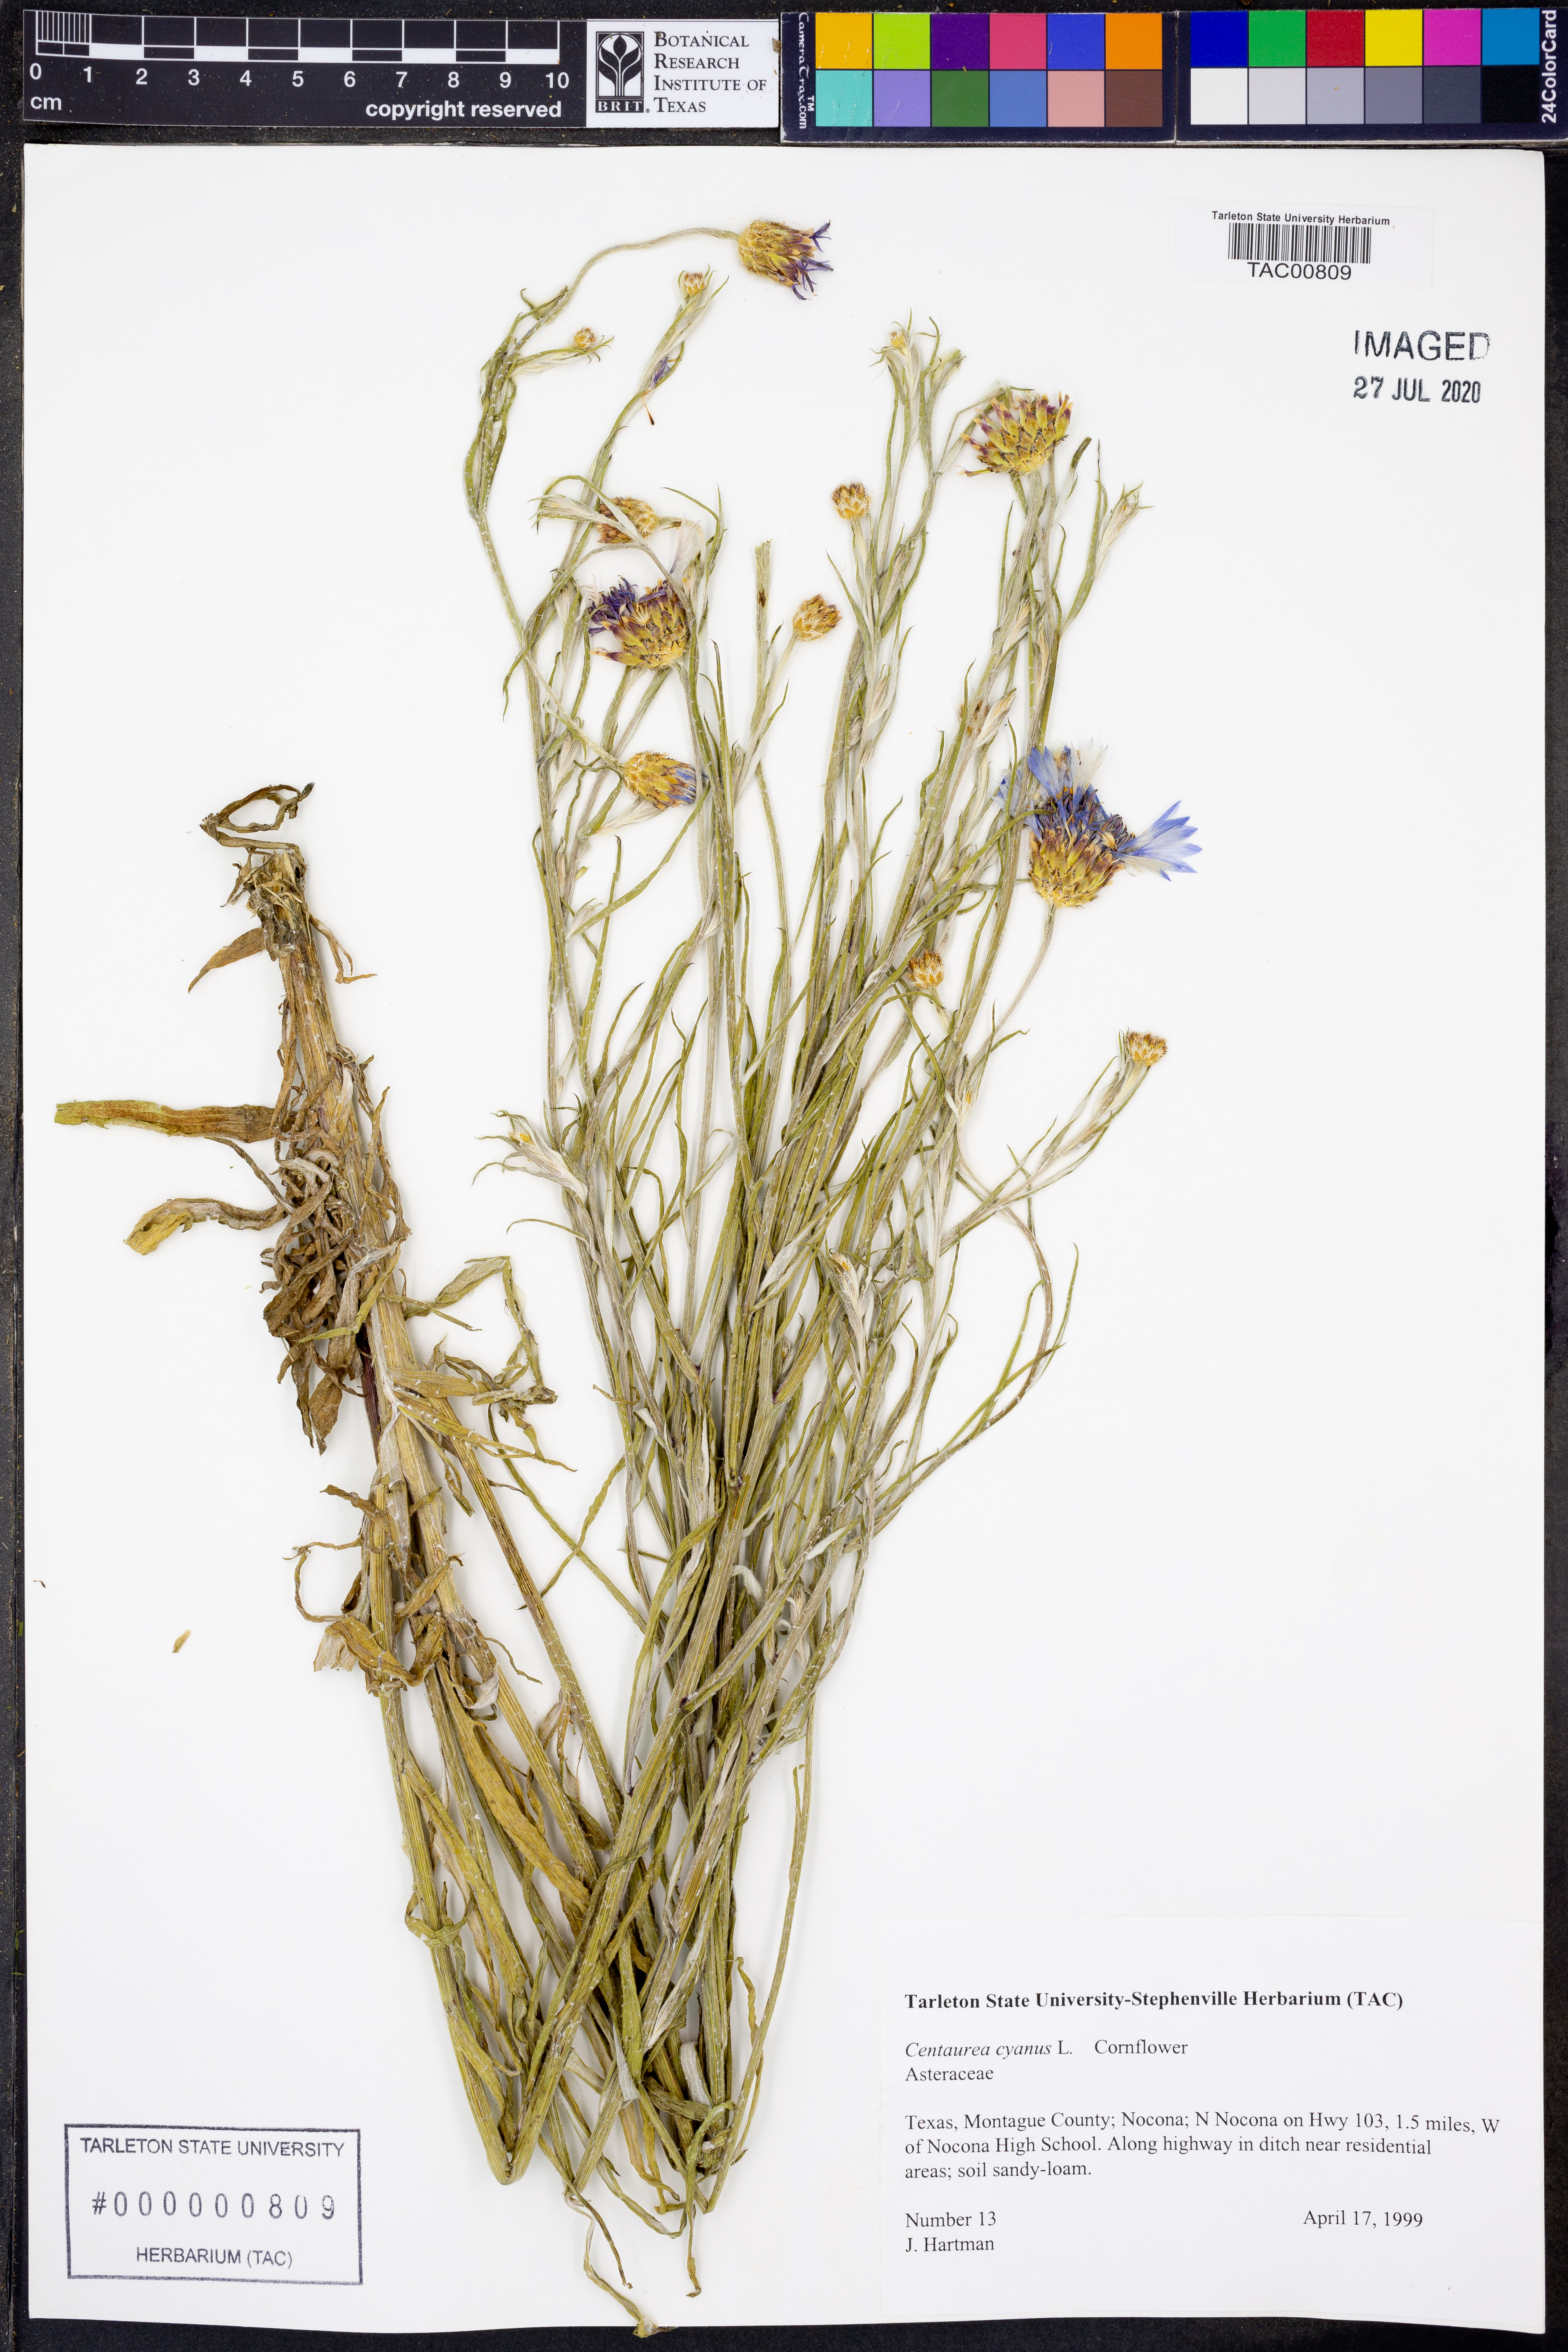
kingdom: Plantae
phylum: Tracheophyta
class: Magnoliopsida
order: Asterales
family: Asteraceae
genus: Plectocephalus
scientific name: Plectocephalus americanus
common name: American basket-flower
